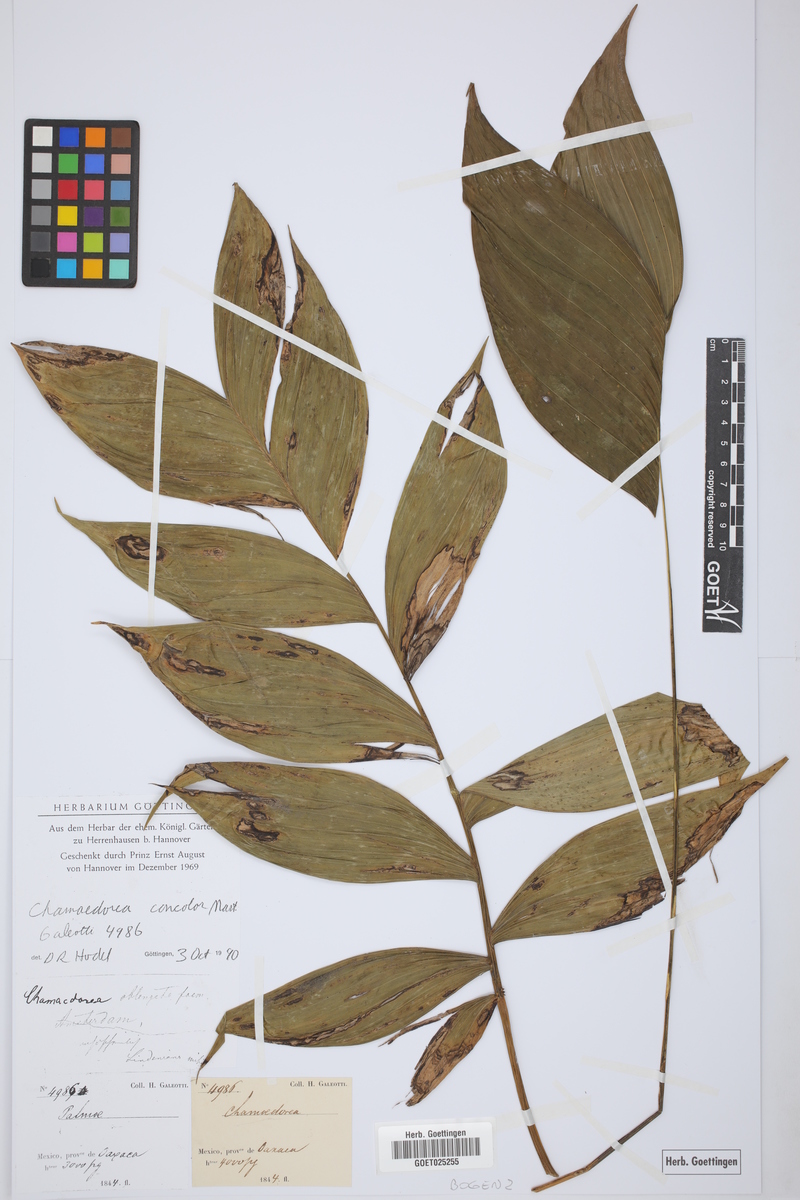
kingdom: Plantae
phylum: Tracheophyta
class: Liliopsida
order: Arecales
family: Arecaceae
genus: Chamaedorea
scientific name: Chamaedorea pinnatifrons
